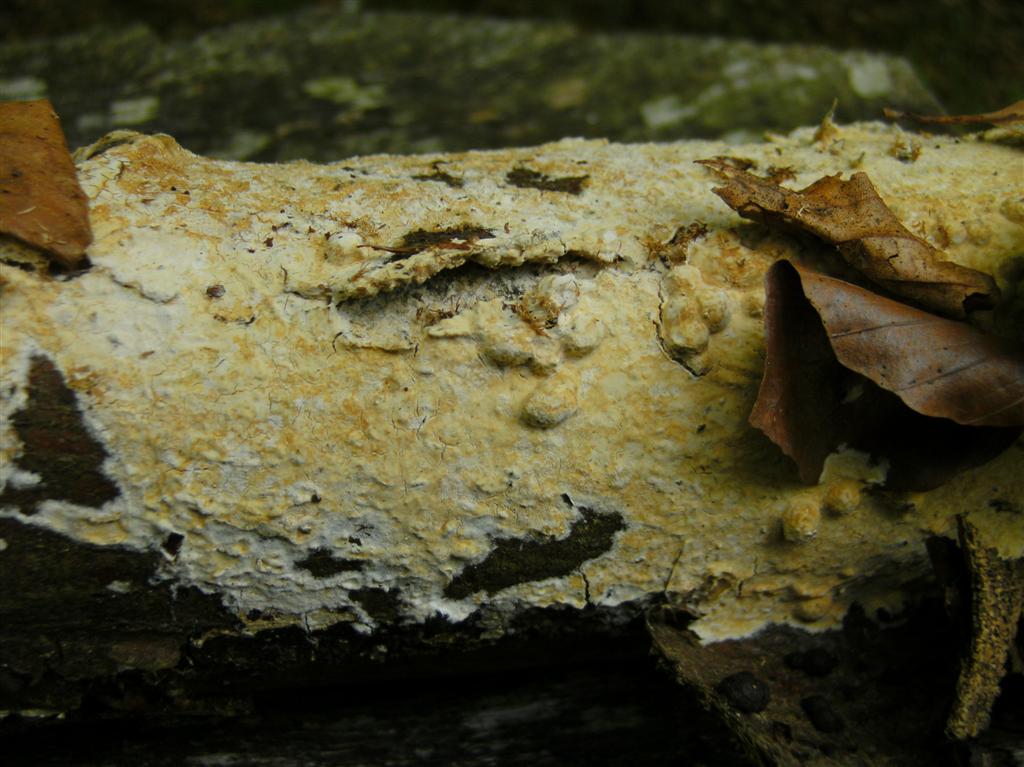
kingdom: Fungi
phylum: Basidiomycota
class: Agaricomycetes
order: Polyporales
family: Phanerochaetaceae
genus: Phanerochaete
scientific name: Phanerochaete sordida
